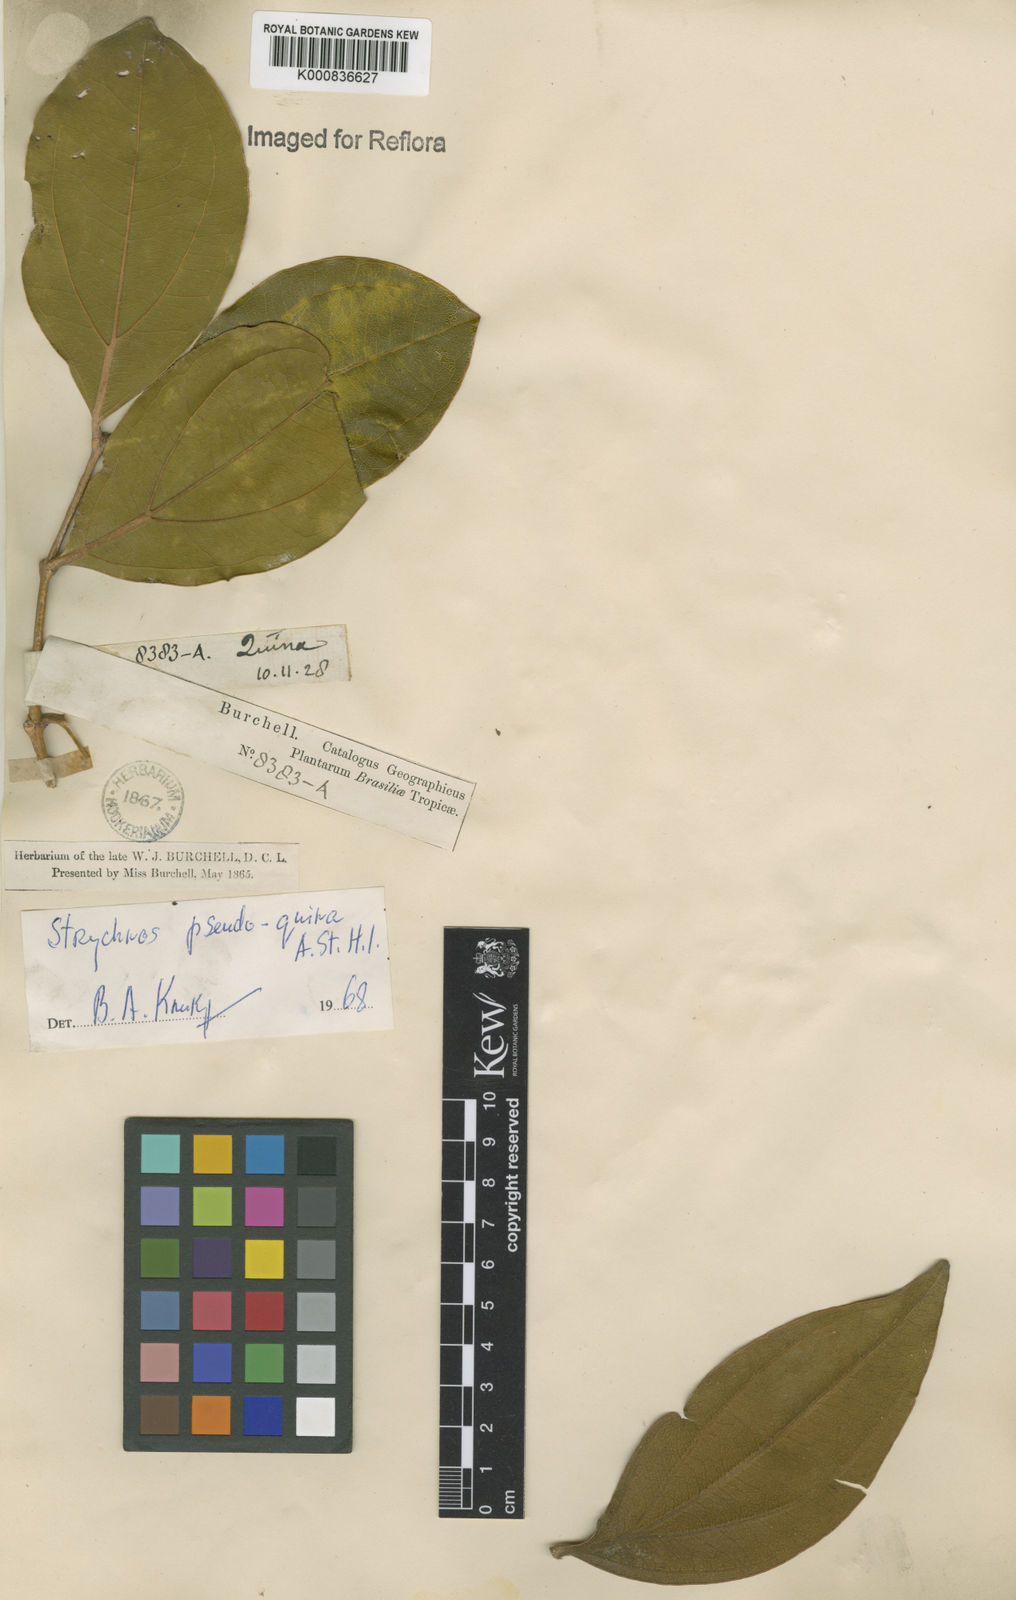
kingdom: Plantae
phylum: Tracheophyta
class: Magnoliopsida
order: Gentianales
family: Loganiaceae
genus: Strychnos
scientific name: Strychnos pseudoquina
